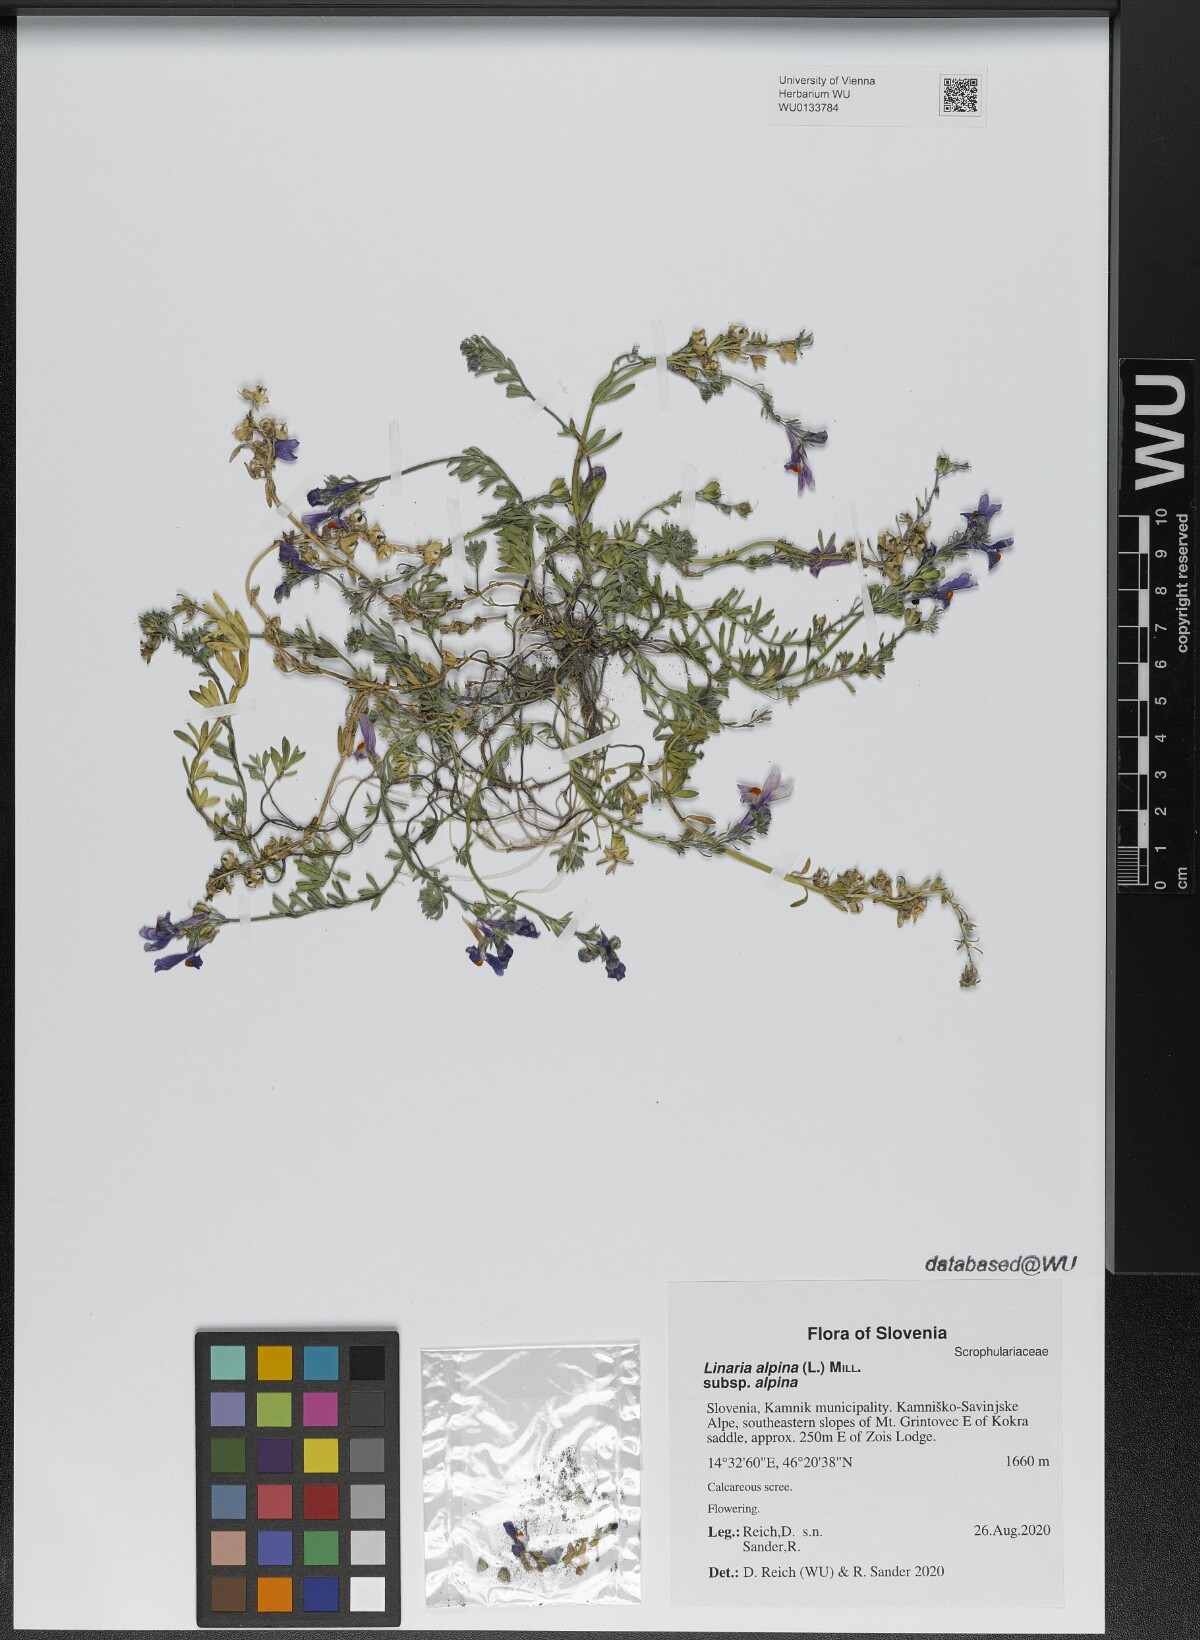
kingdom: Plantae
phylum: Tracheophyta
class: Magnoliopsida
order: Lamiales
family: Plantaginaceae
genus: Linaria
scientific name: Linaria alpina
